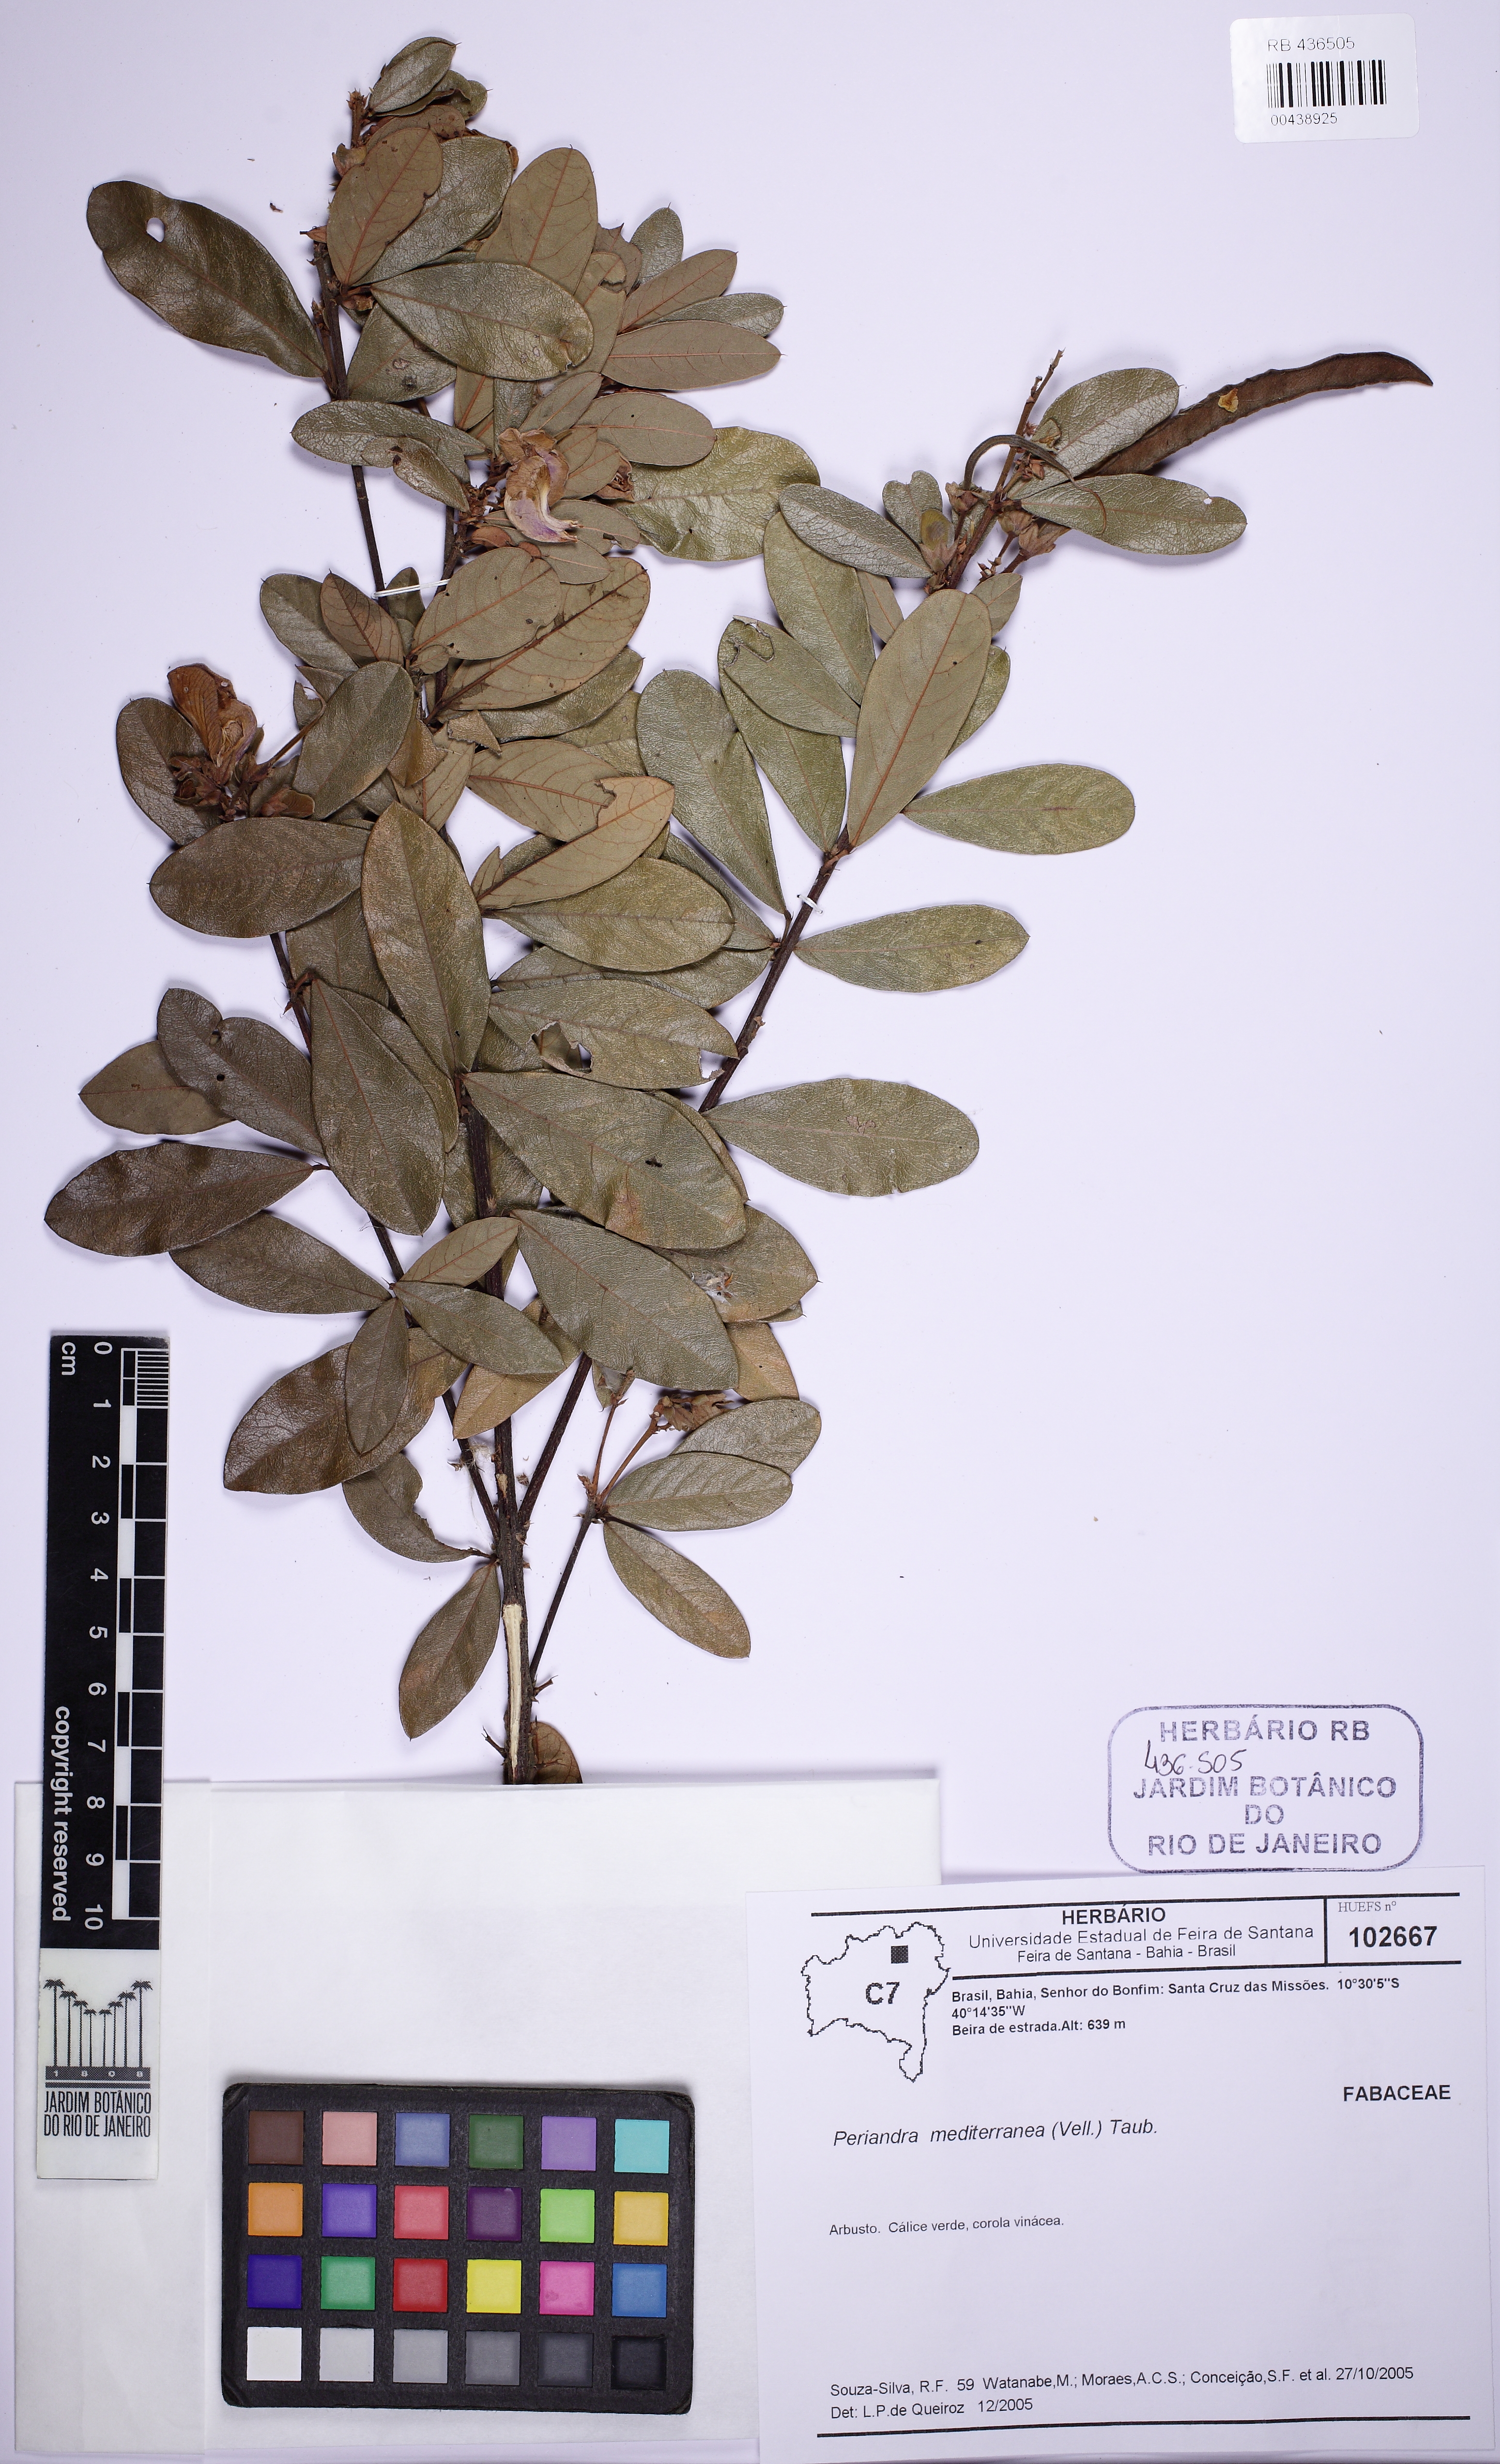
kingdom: Plantae
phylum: Tracheophyta
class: Magnoliopsida
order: Fabales
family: Fabaceae
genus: Periandra
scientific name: Periandra mediterranea
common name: Brazilian licorice
